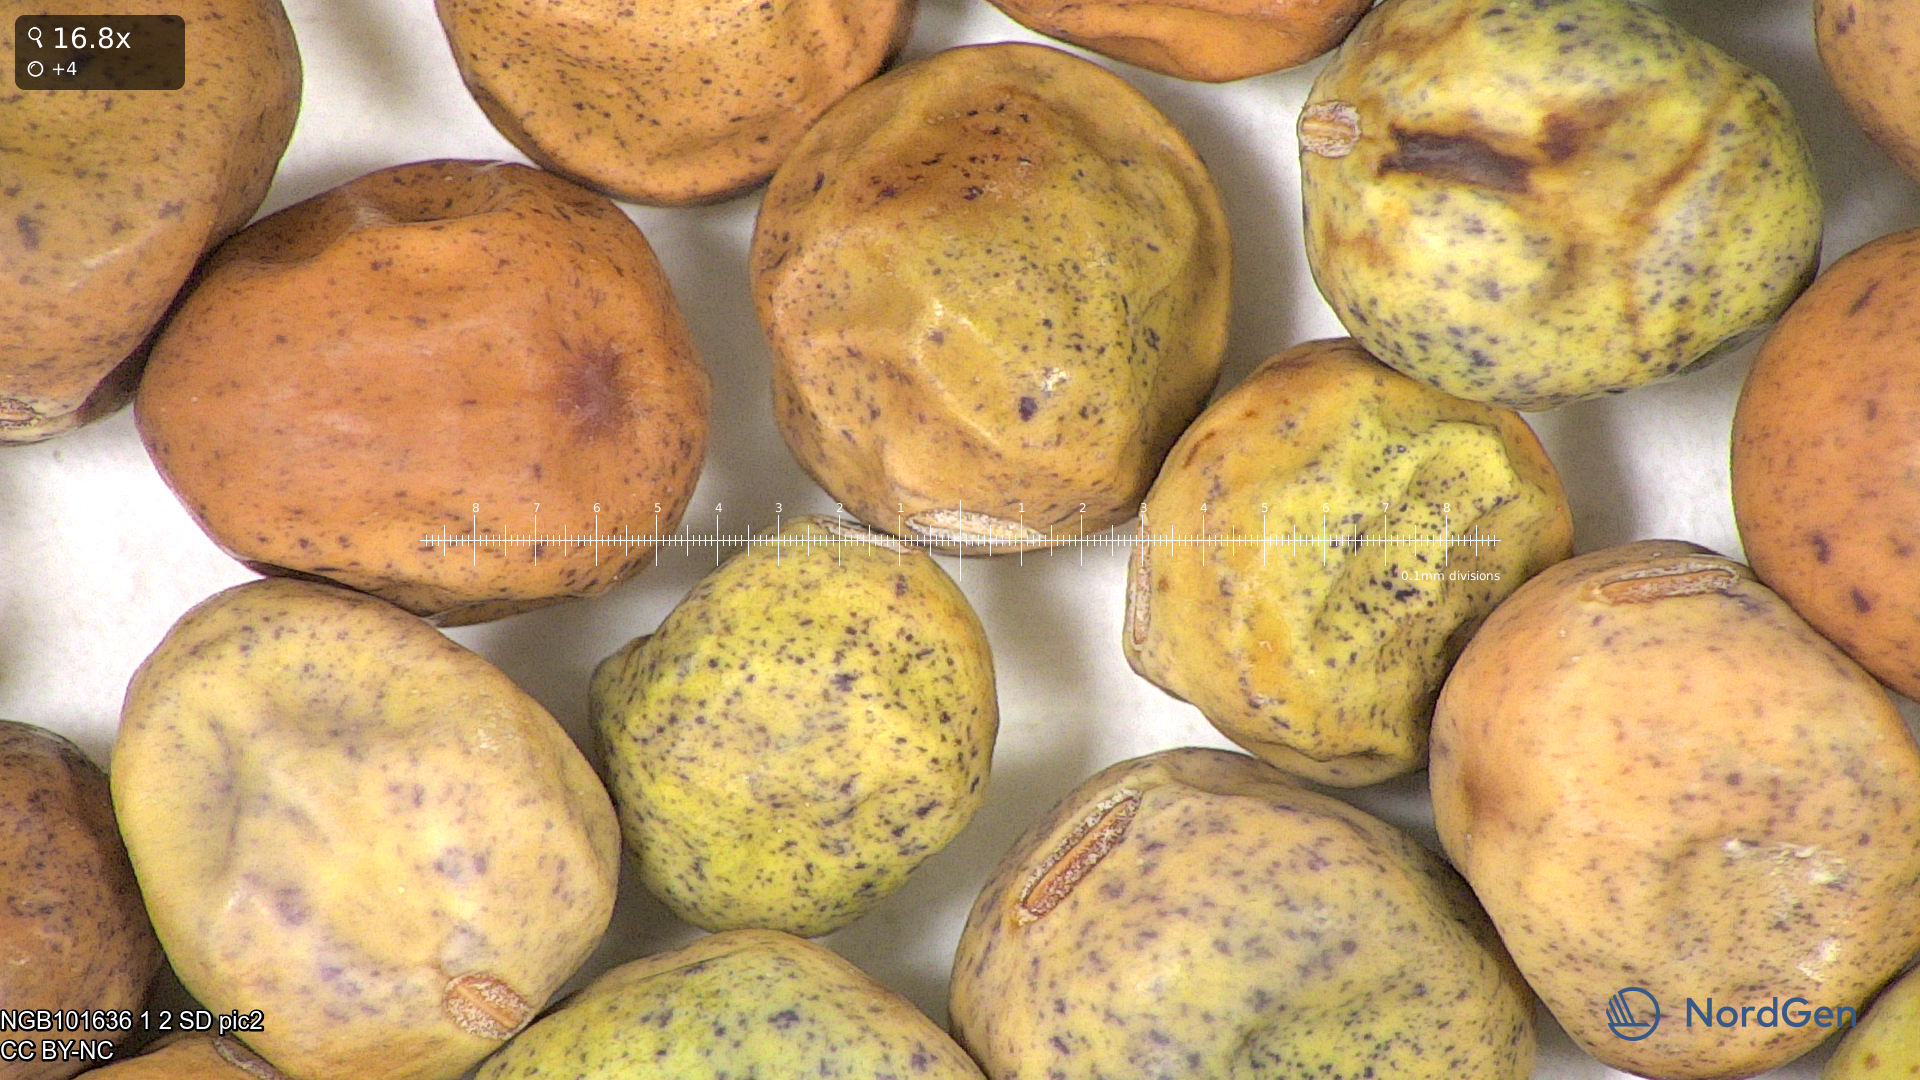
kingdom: Plantae
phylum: Tracheophyta
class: Magnoliopsida
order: Fabales
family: Fabaceae
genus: Lathyrus
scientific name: Lathyrus oleraceus
